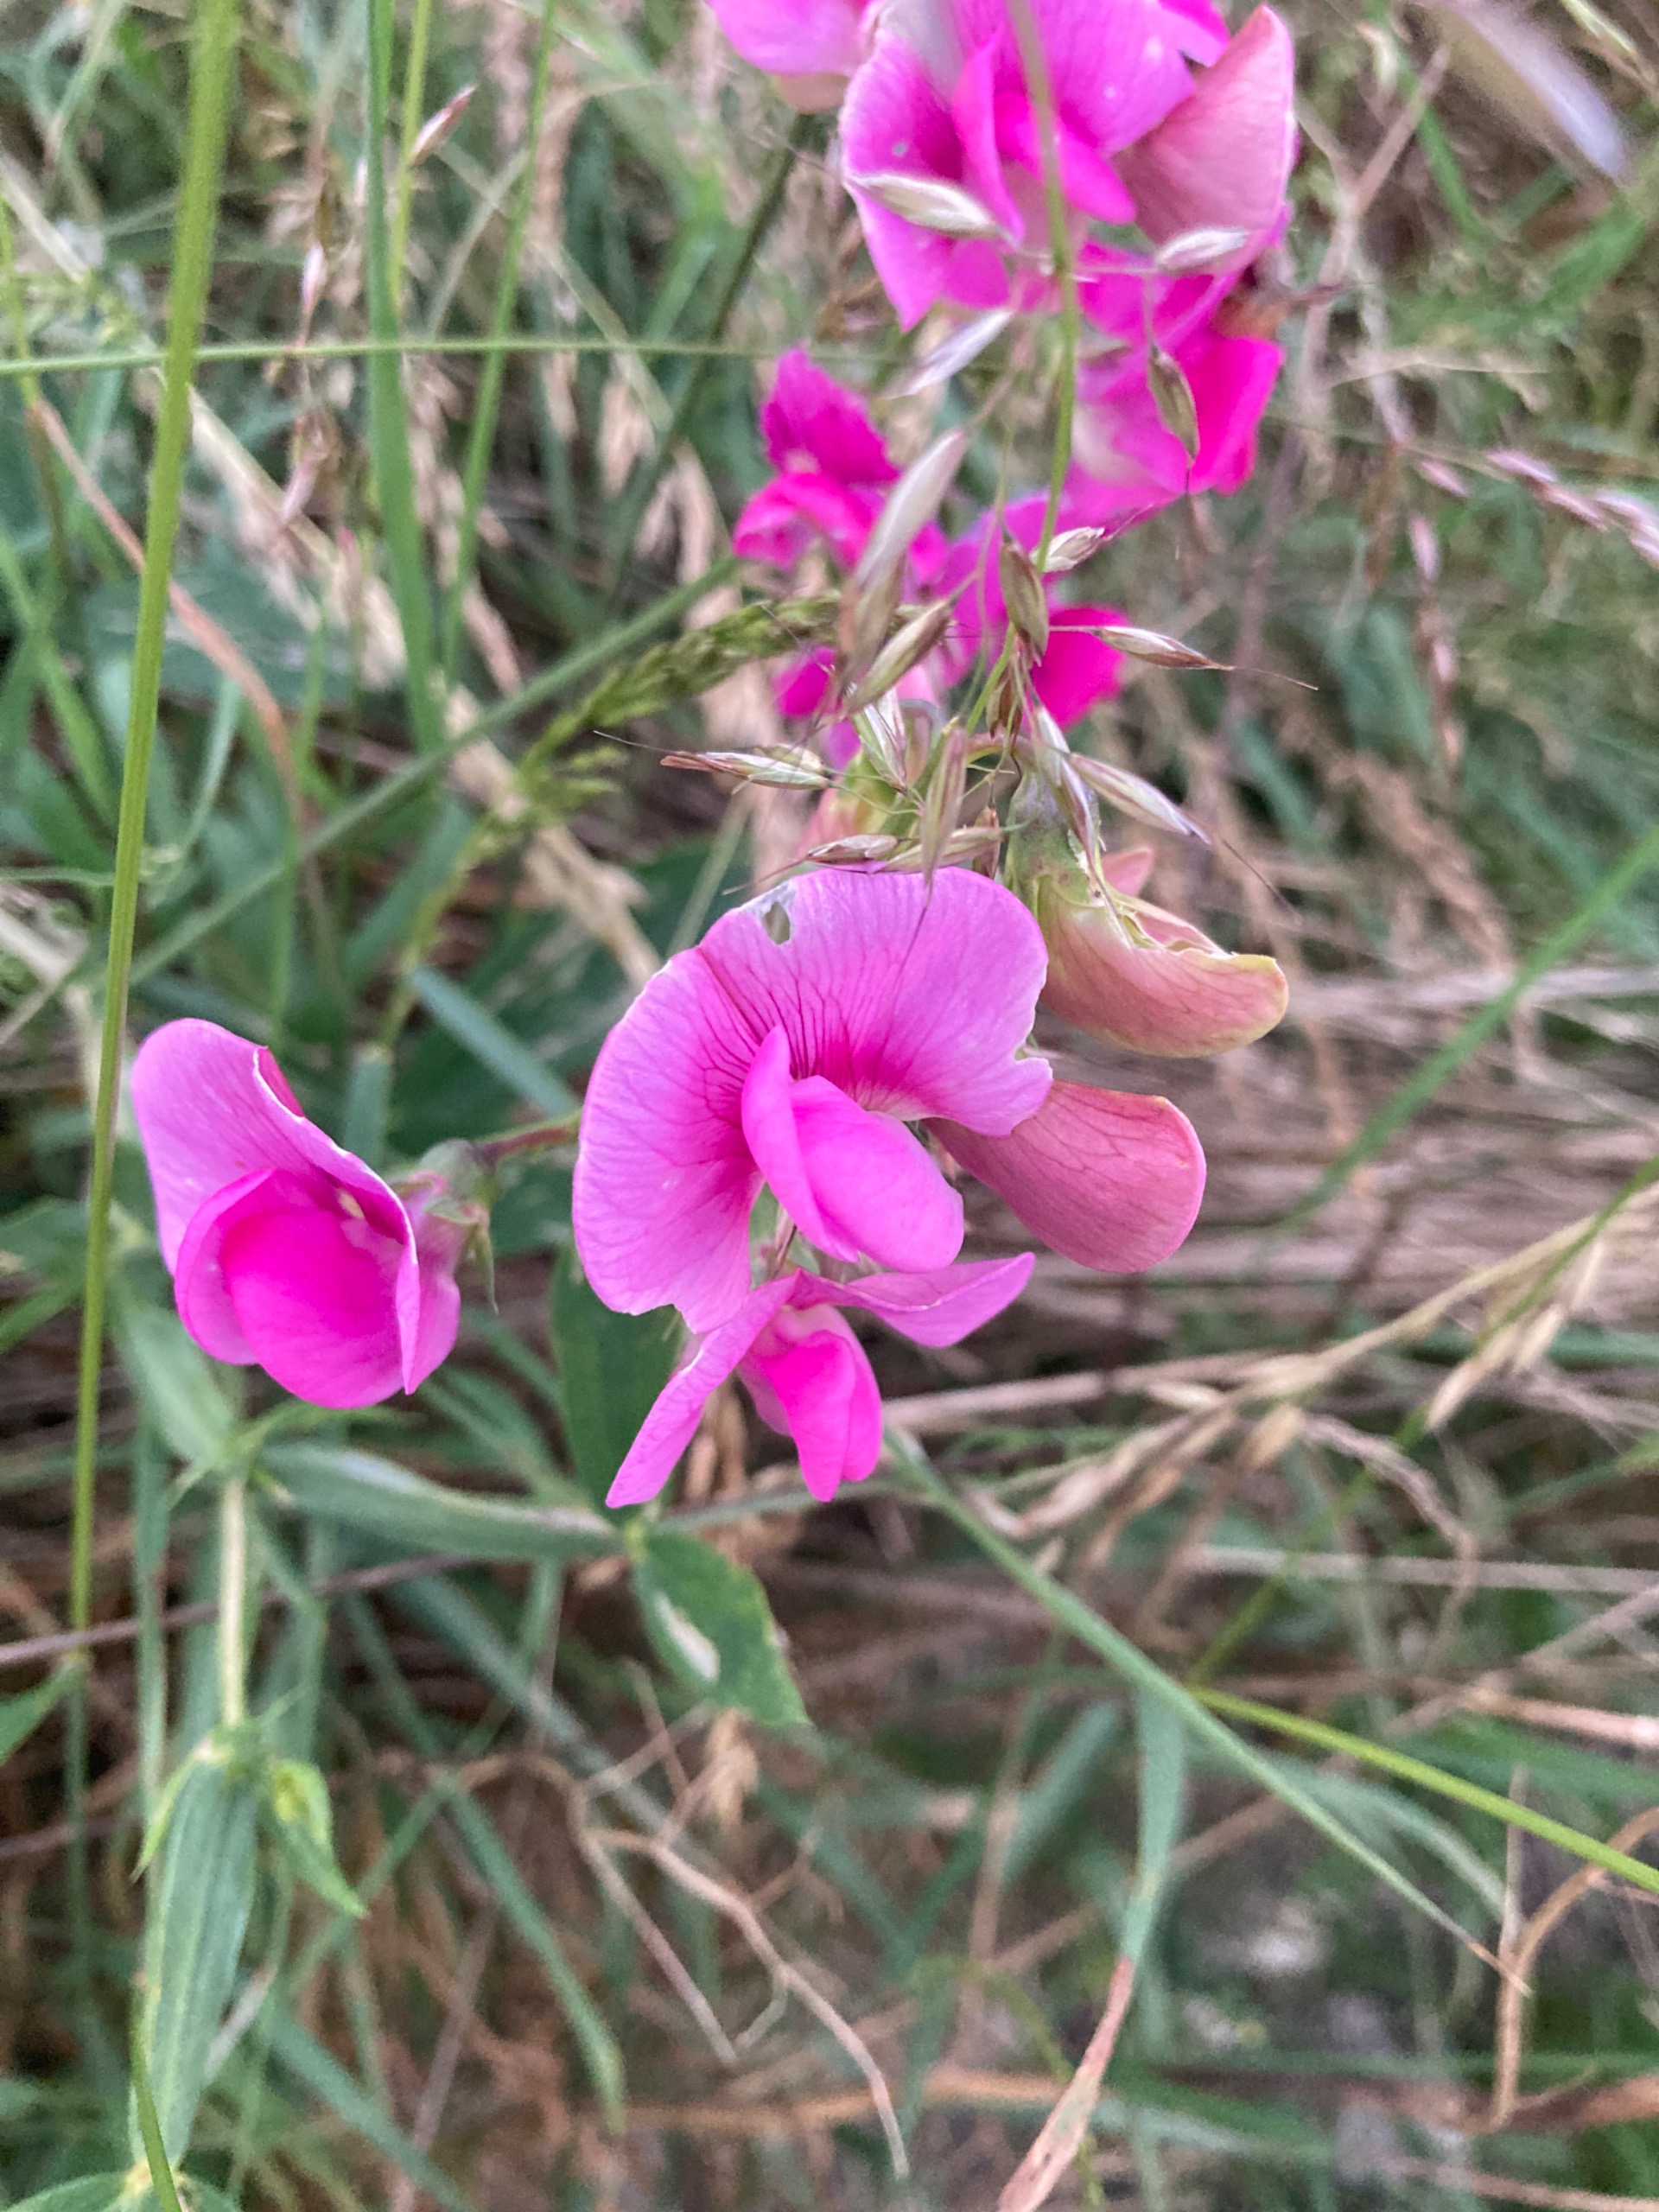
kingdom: Plantae
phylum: Tracheophyta
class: Magnoliopsida
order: Fabales
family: Fabaceae
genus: Lathyrus
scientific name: Lathyrus latifolius
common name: Flerårig ærteblomst
